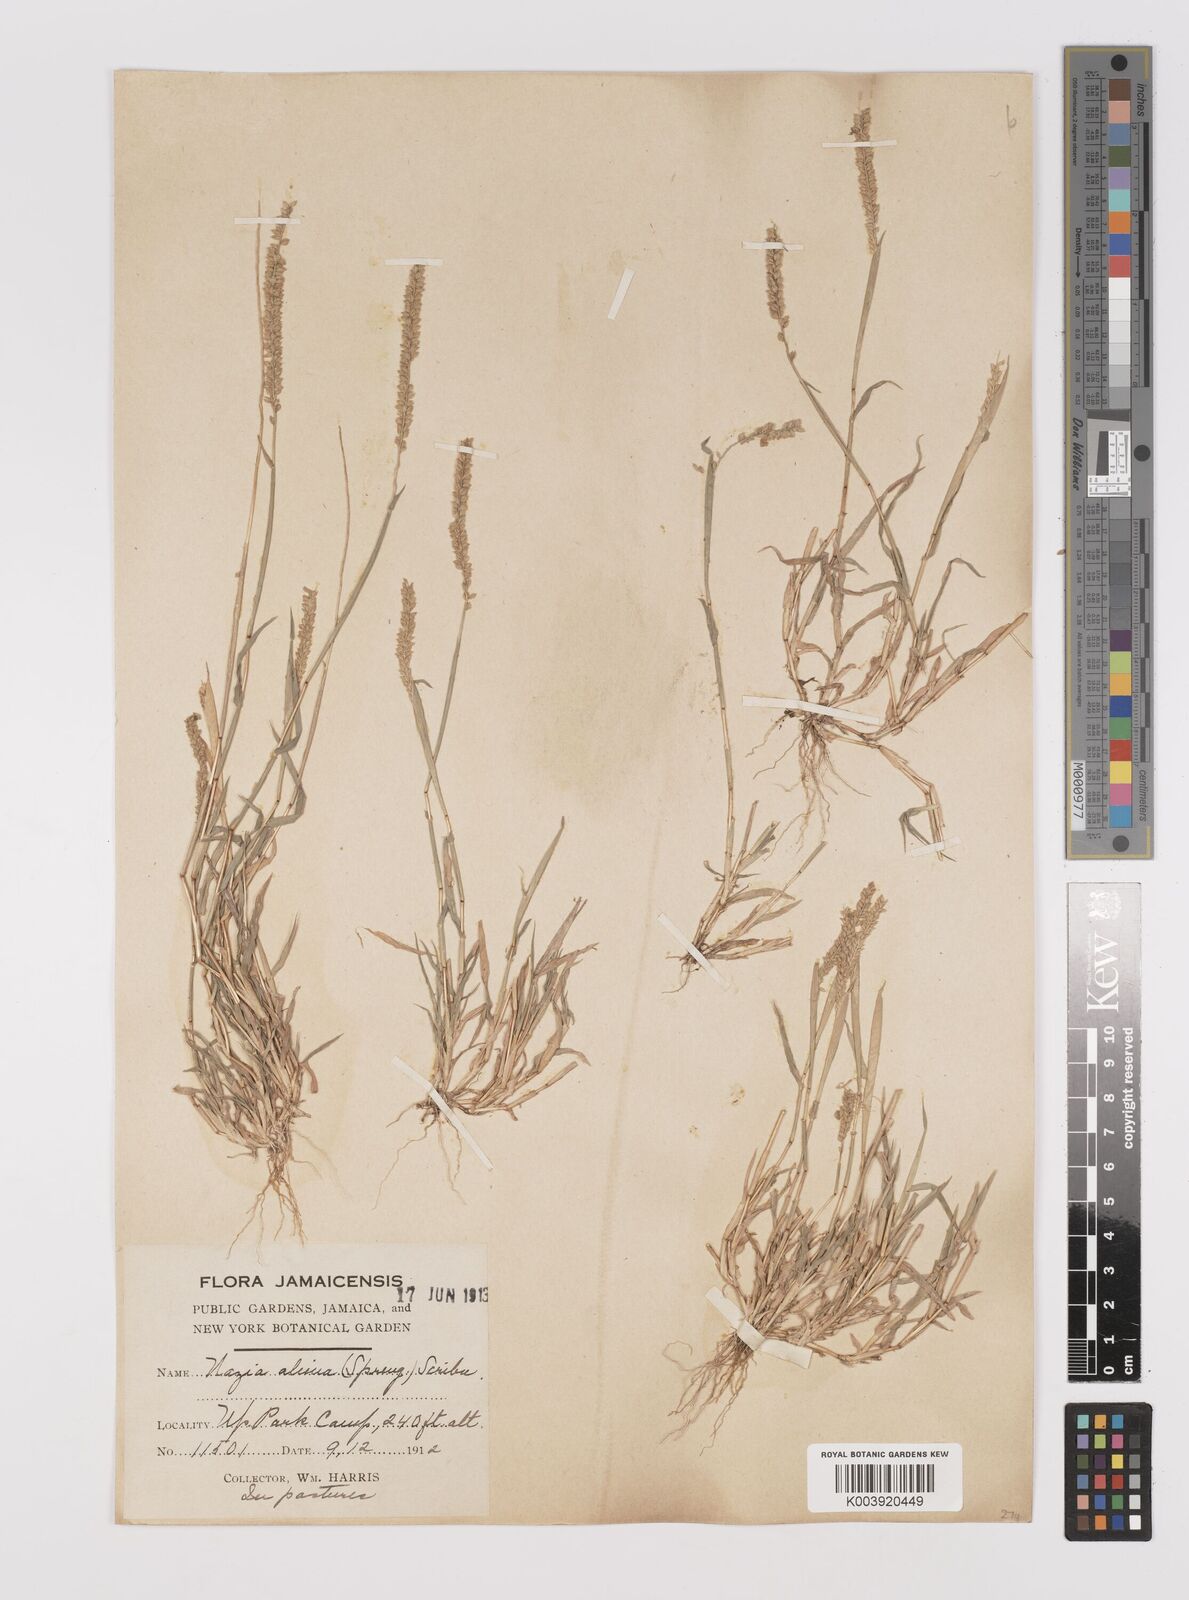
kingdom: Plantae
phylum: Tracheophyta
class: Liliopsida
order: Poales
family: Poaceae
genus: Tragus
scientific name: Tragus berteronianus
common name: African bur-grass
